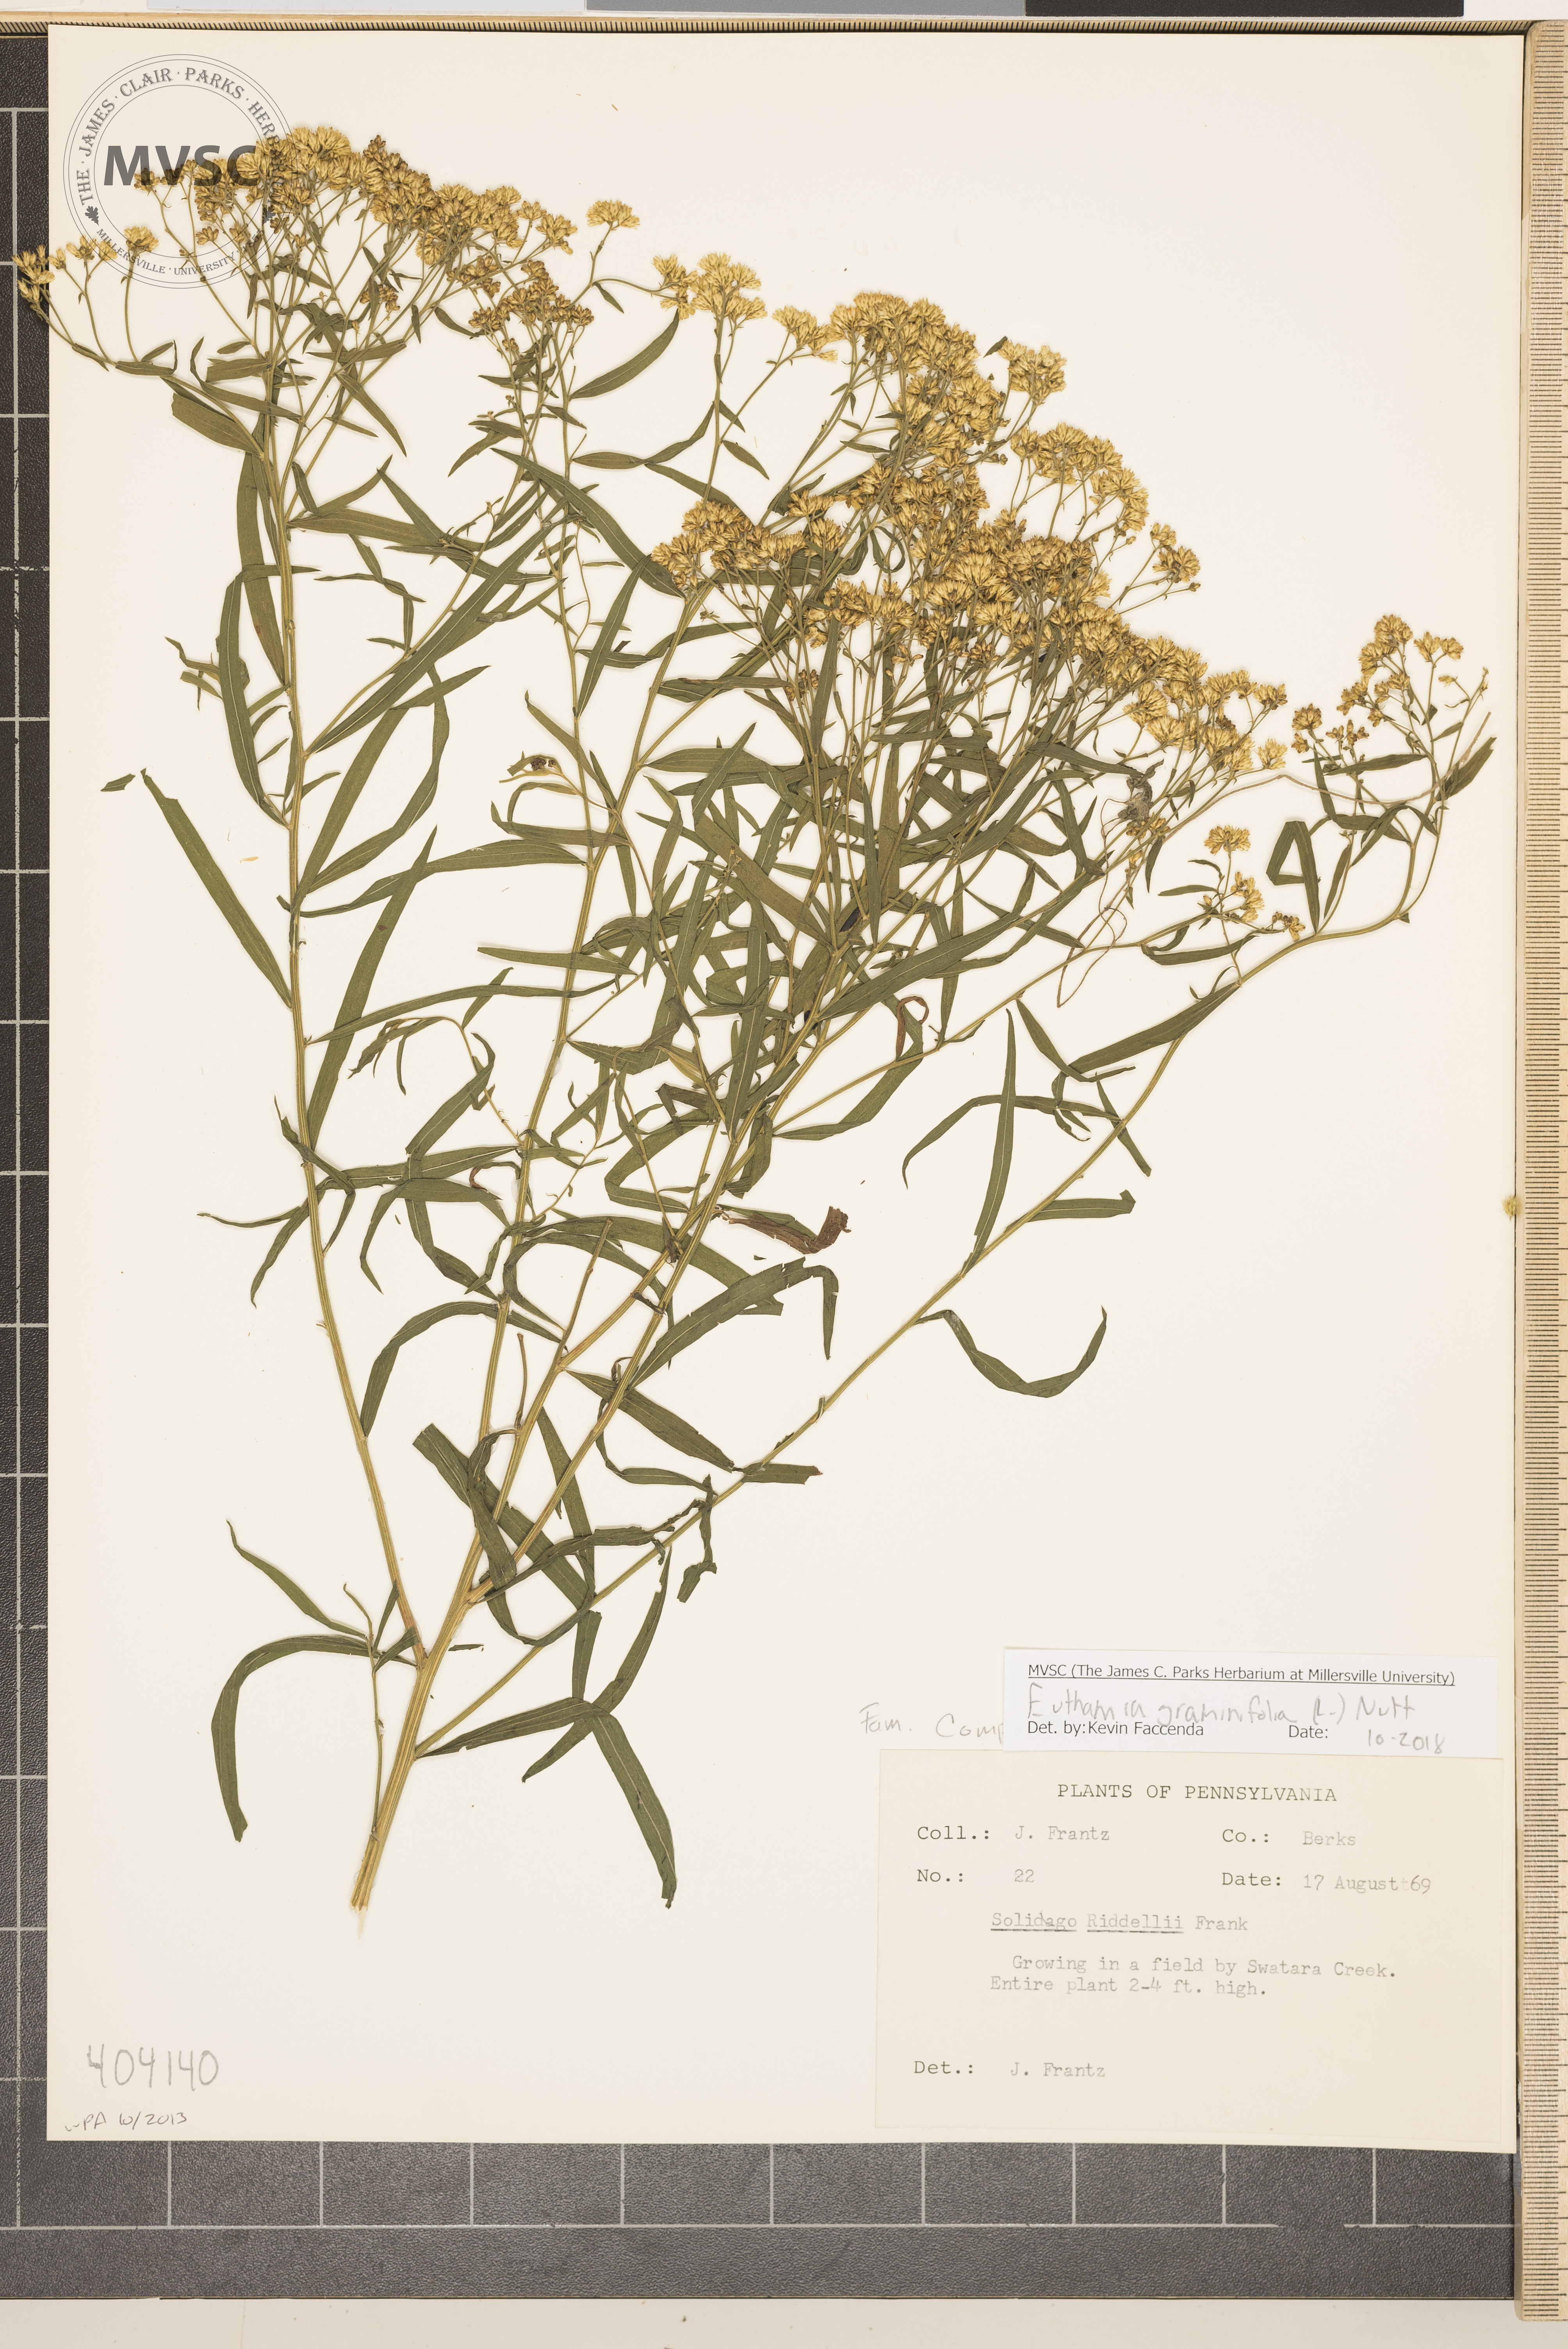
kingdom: Plantae
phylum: Tracheophyta
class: Magnoliopsida
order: Asterales
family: Asteraceae
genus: Euthamia
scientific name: Euthamia graminifolia
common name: Common goldentop
